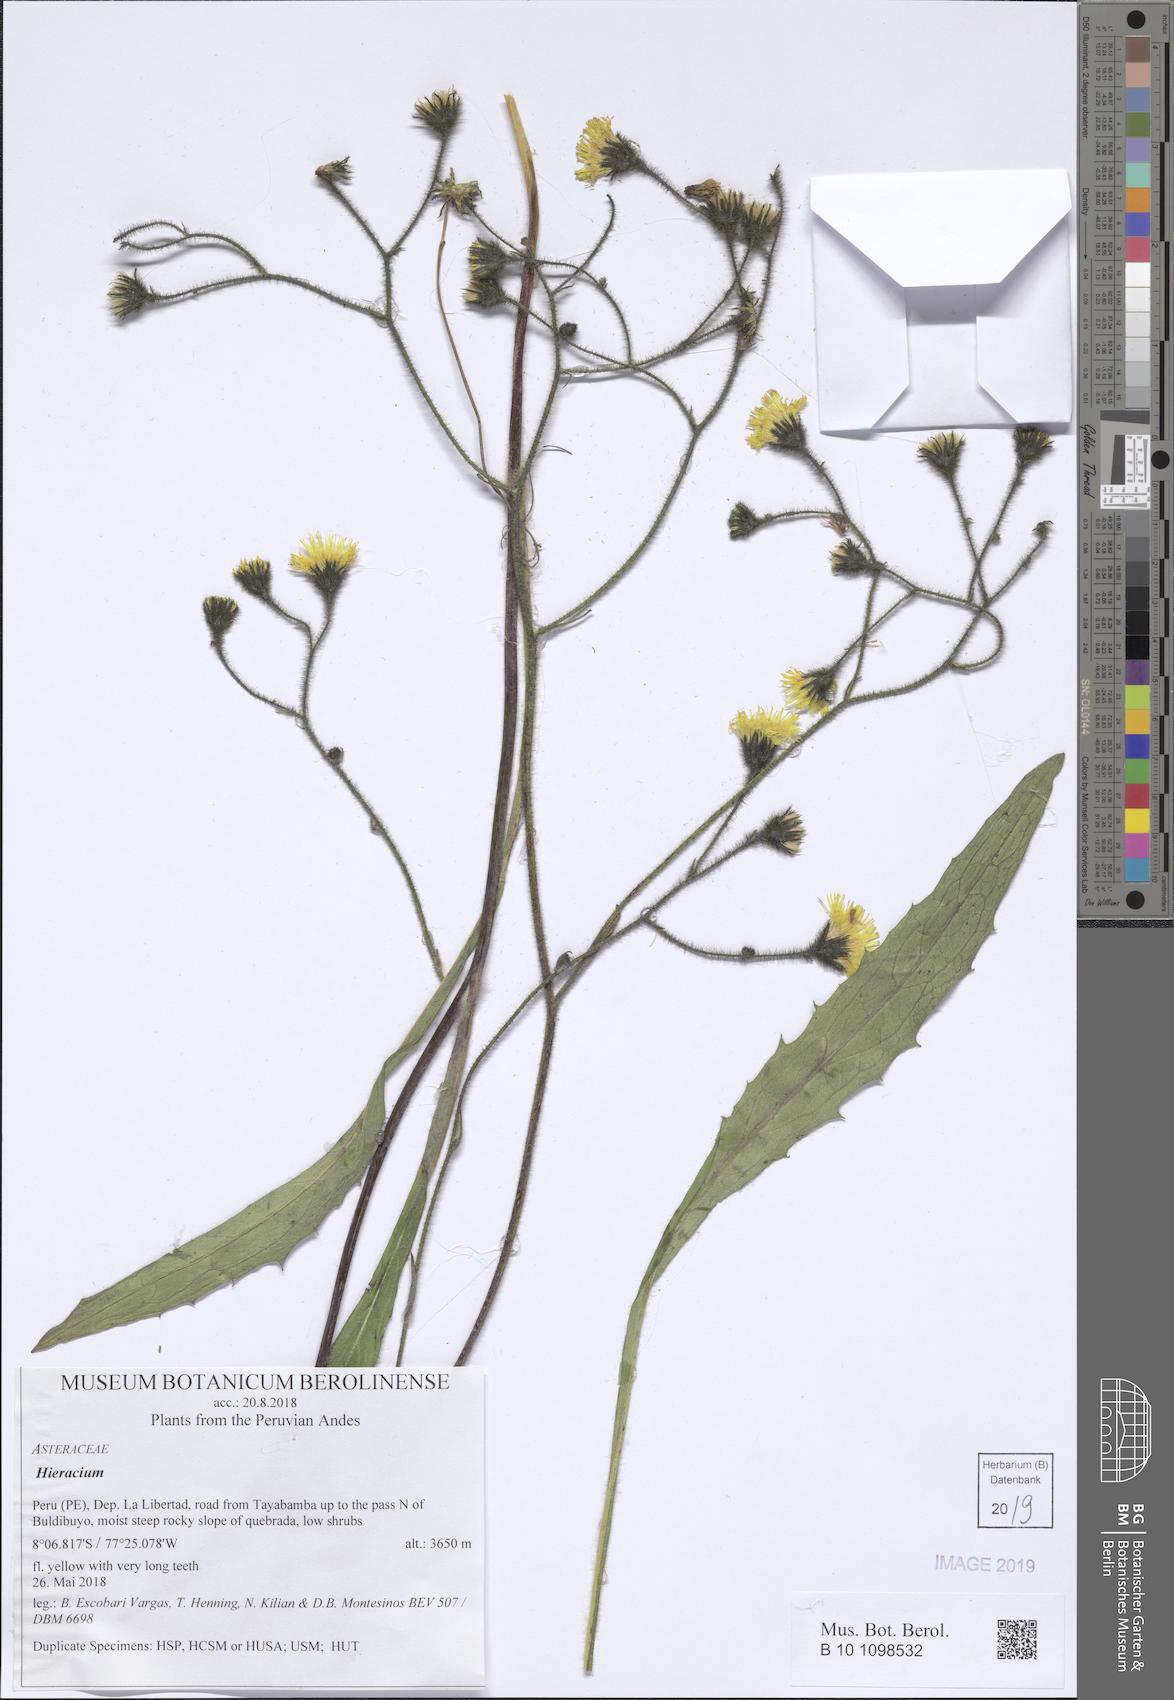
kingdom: Plantae
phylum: Tracheophyta
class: Magnoliopsida
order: Asterales
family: Asteraceae
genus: Hieracium
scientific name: Hieracium
